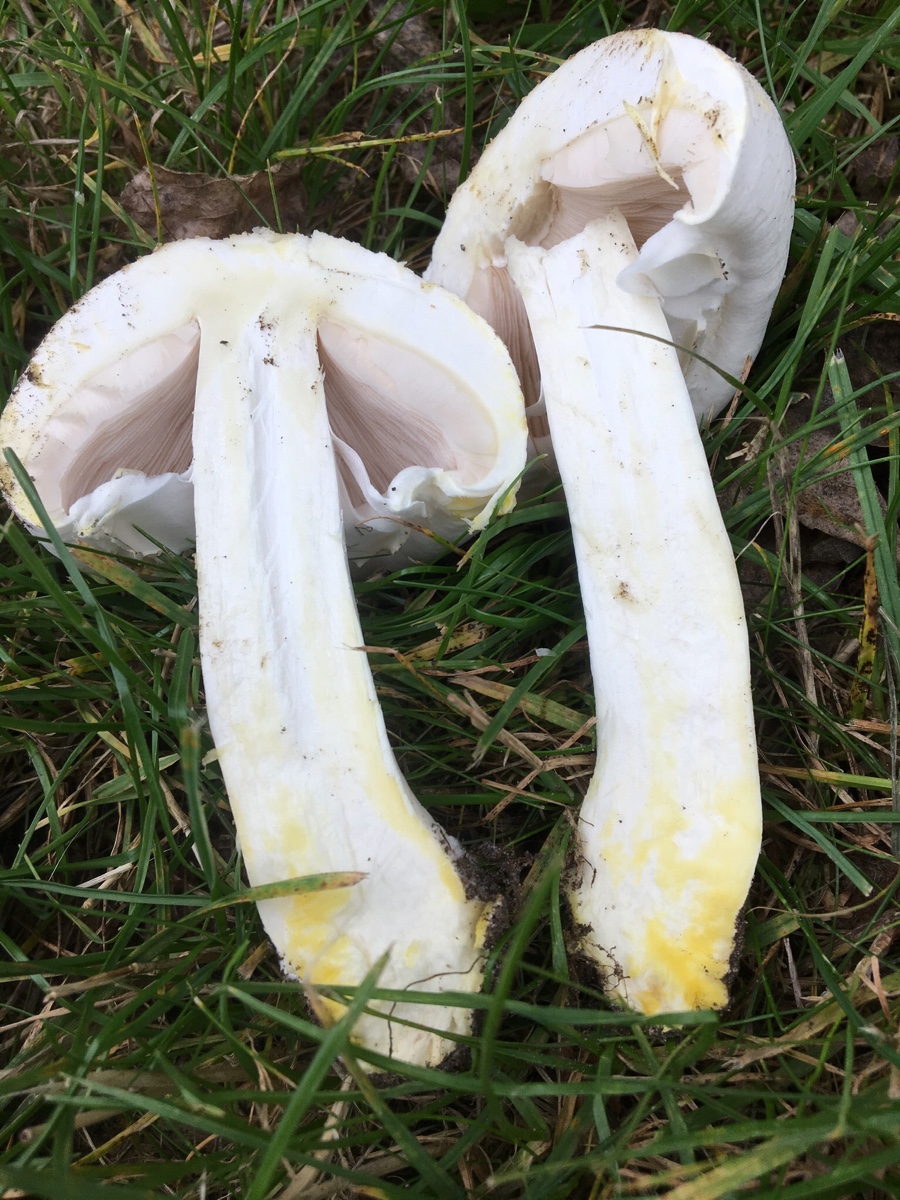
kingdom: Fungi
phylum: Basidiomycota
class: Agaricomycetes
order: Agaricales
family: Agaricaceae
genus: Agaricus
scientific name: Agaricus xanthodermus
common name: karbol-champignon
